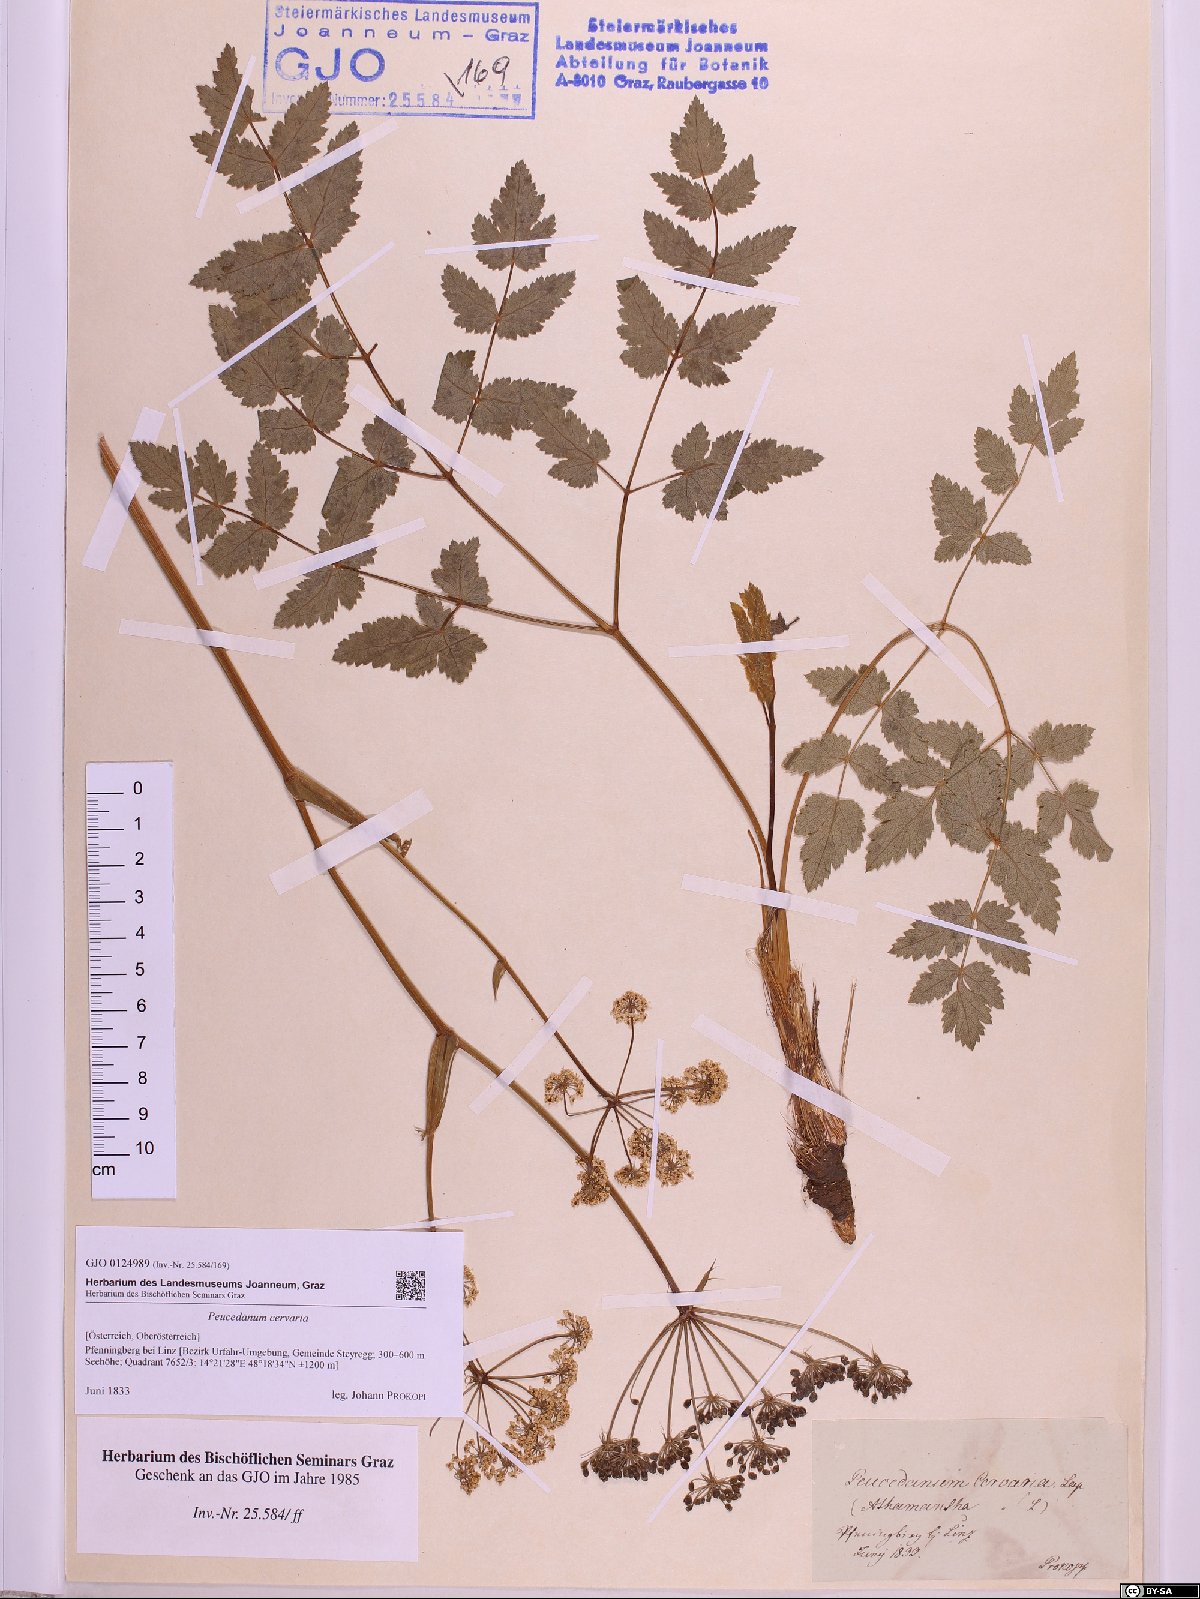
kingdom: Plantae
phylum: Tracheophyta
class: Magnoliopsida
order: Apiales
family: Apiaceae
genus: Cervaria
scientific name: Cervaria rivini
